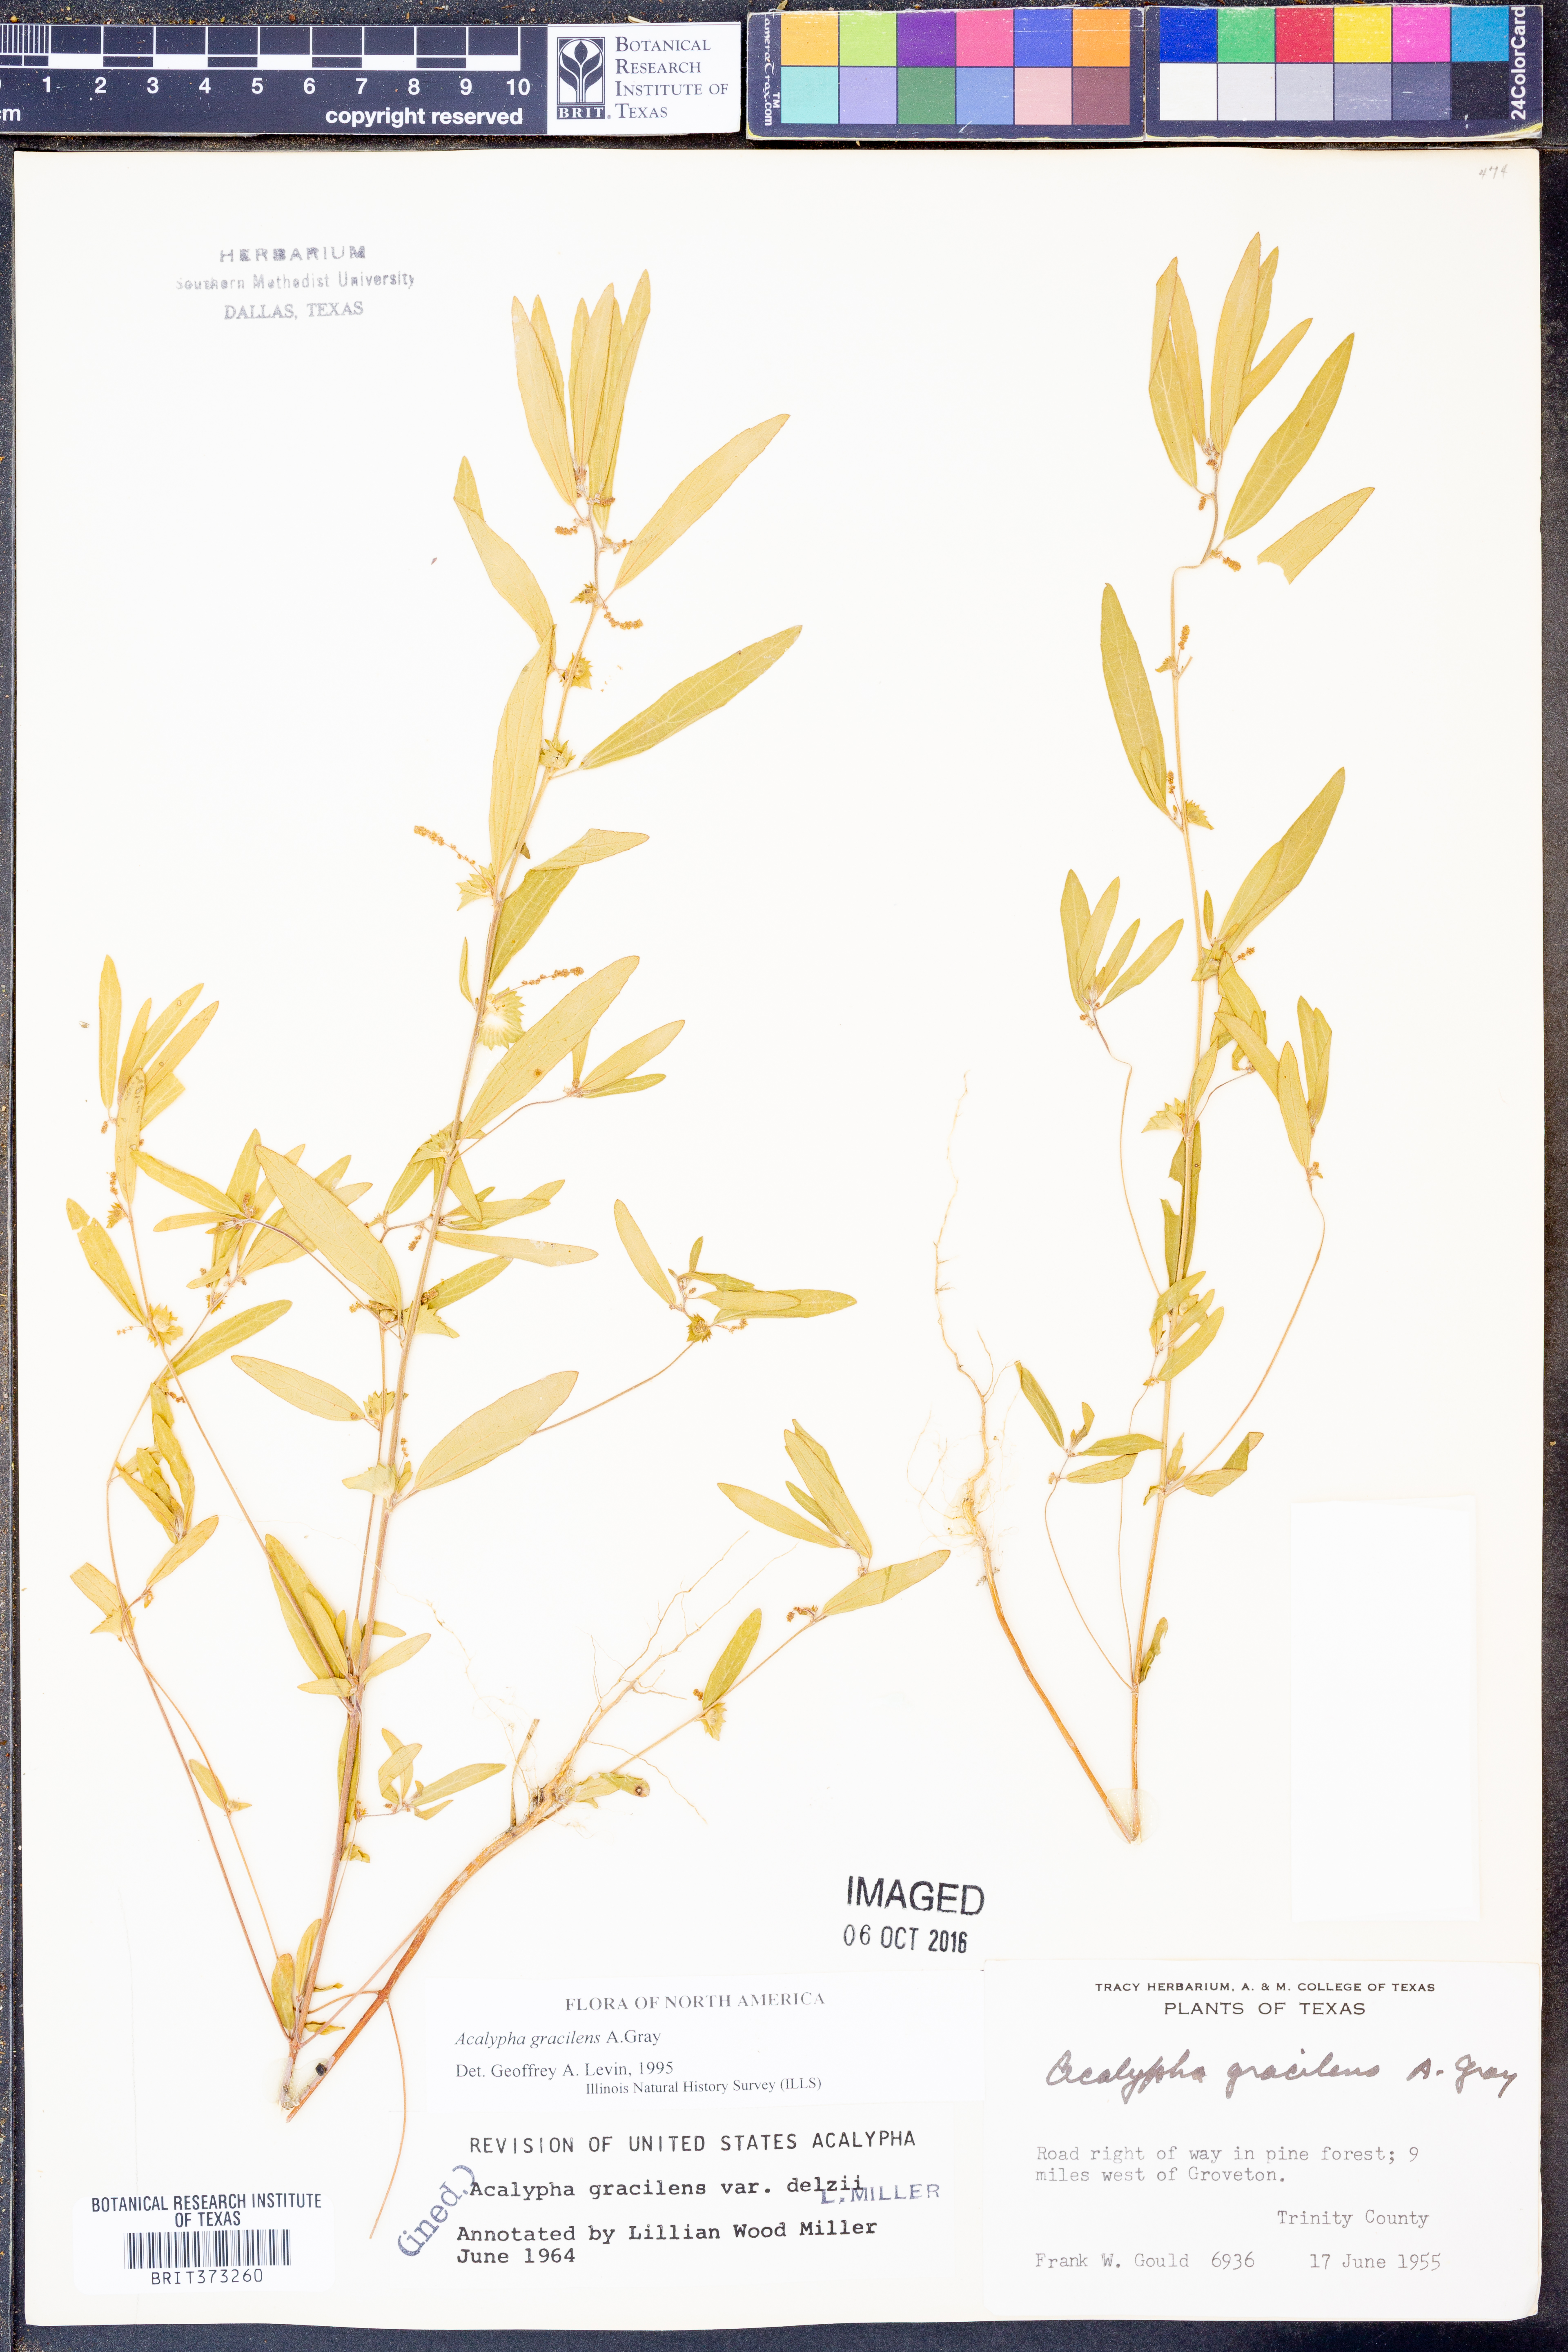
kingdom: Plantae
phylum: Tracheophyta
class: Magnoliopsida
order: Malpighiales
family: Euphorbiaceae
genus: Acalypha
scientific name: Acalypha gracilens
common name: Slender three-seeded mercury
